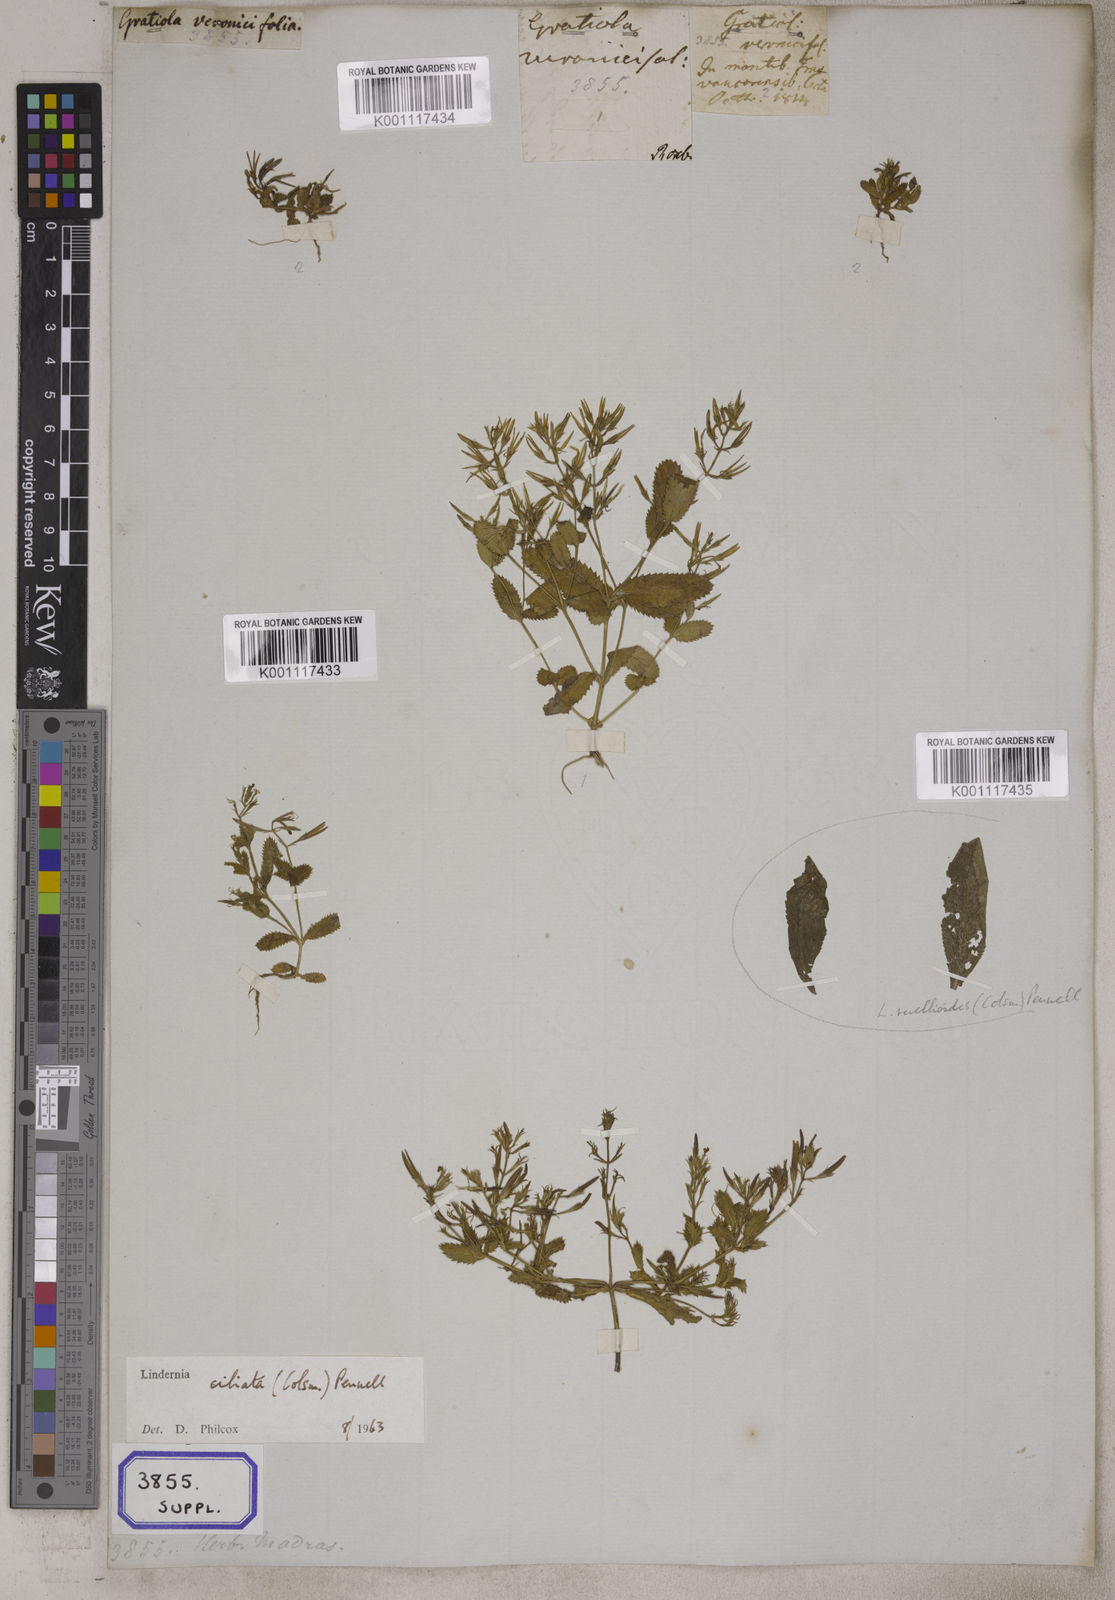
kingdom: Plantae
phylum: Tracheophyta
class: Magnoliopsida
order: Lamiales
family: Linderniaceae
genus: Bonnaya
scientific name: Bonnaya ciliata
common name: Hairy slitwort
